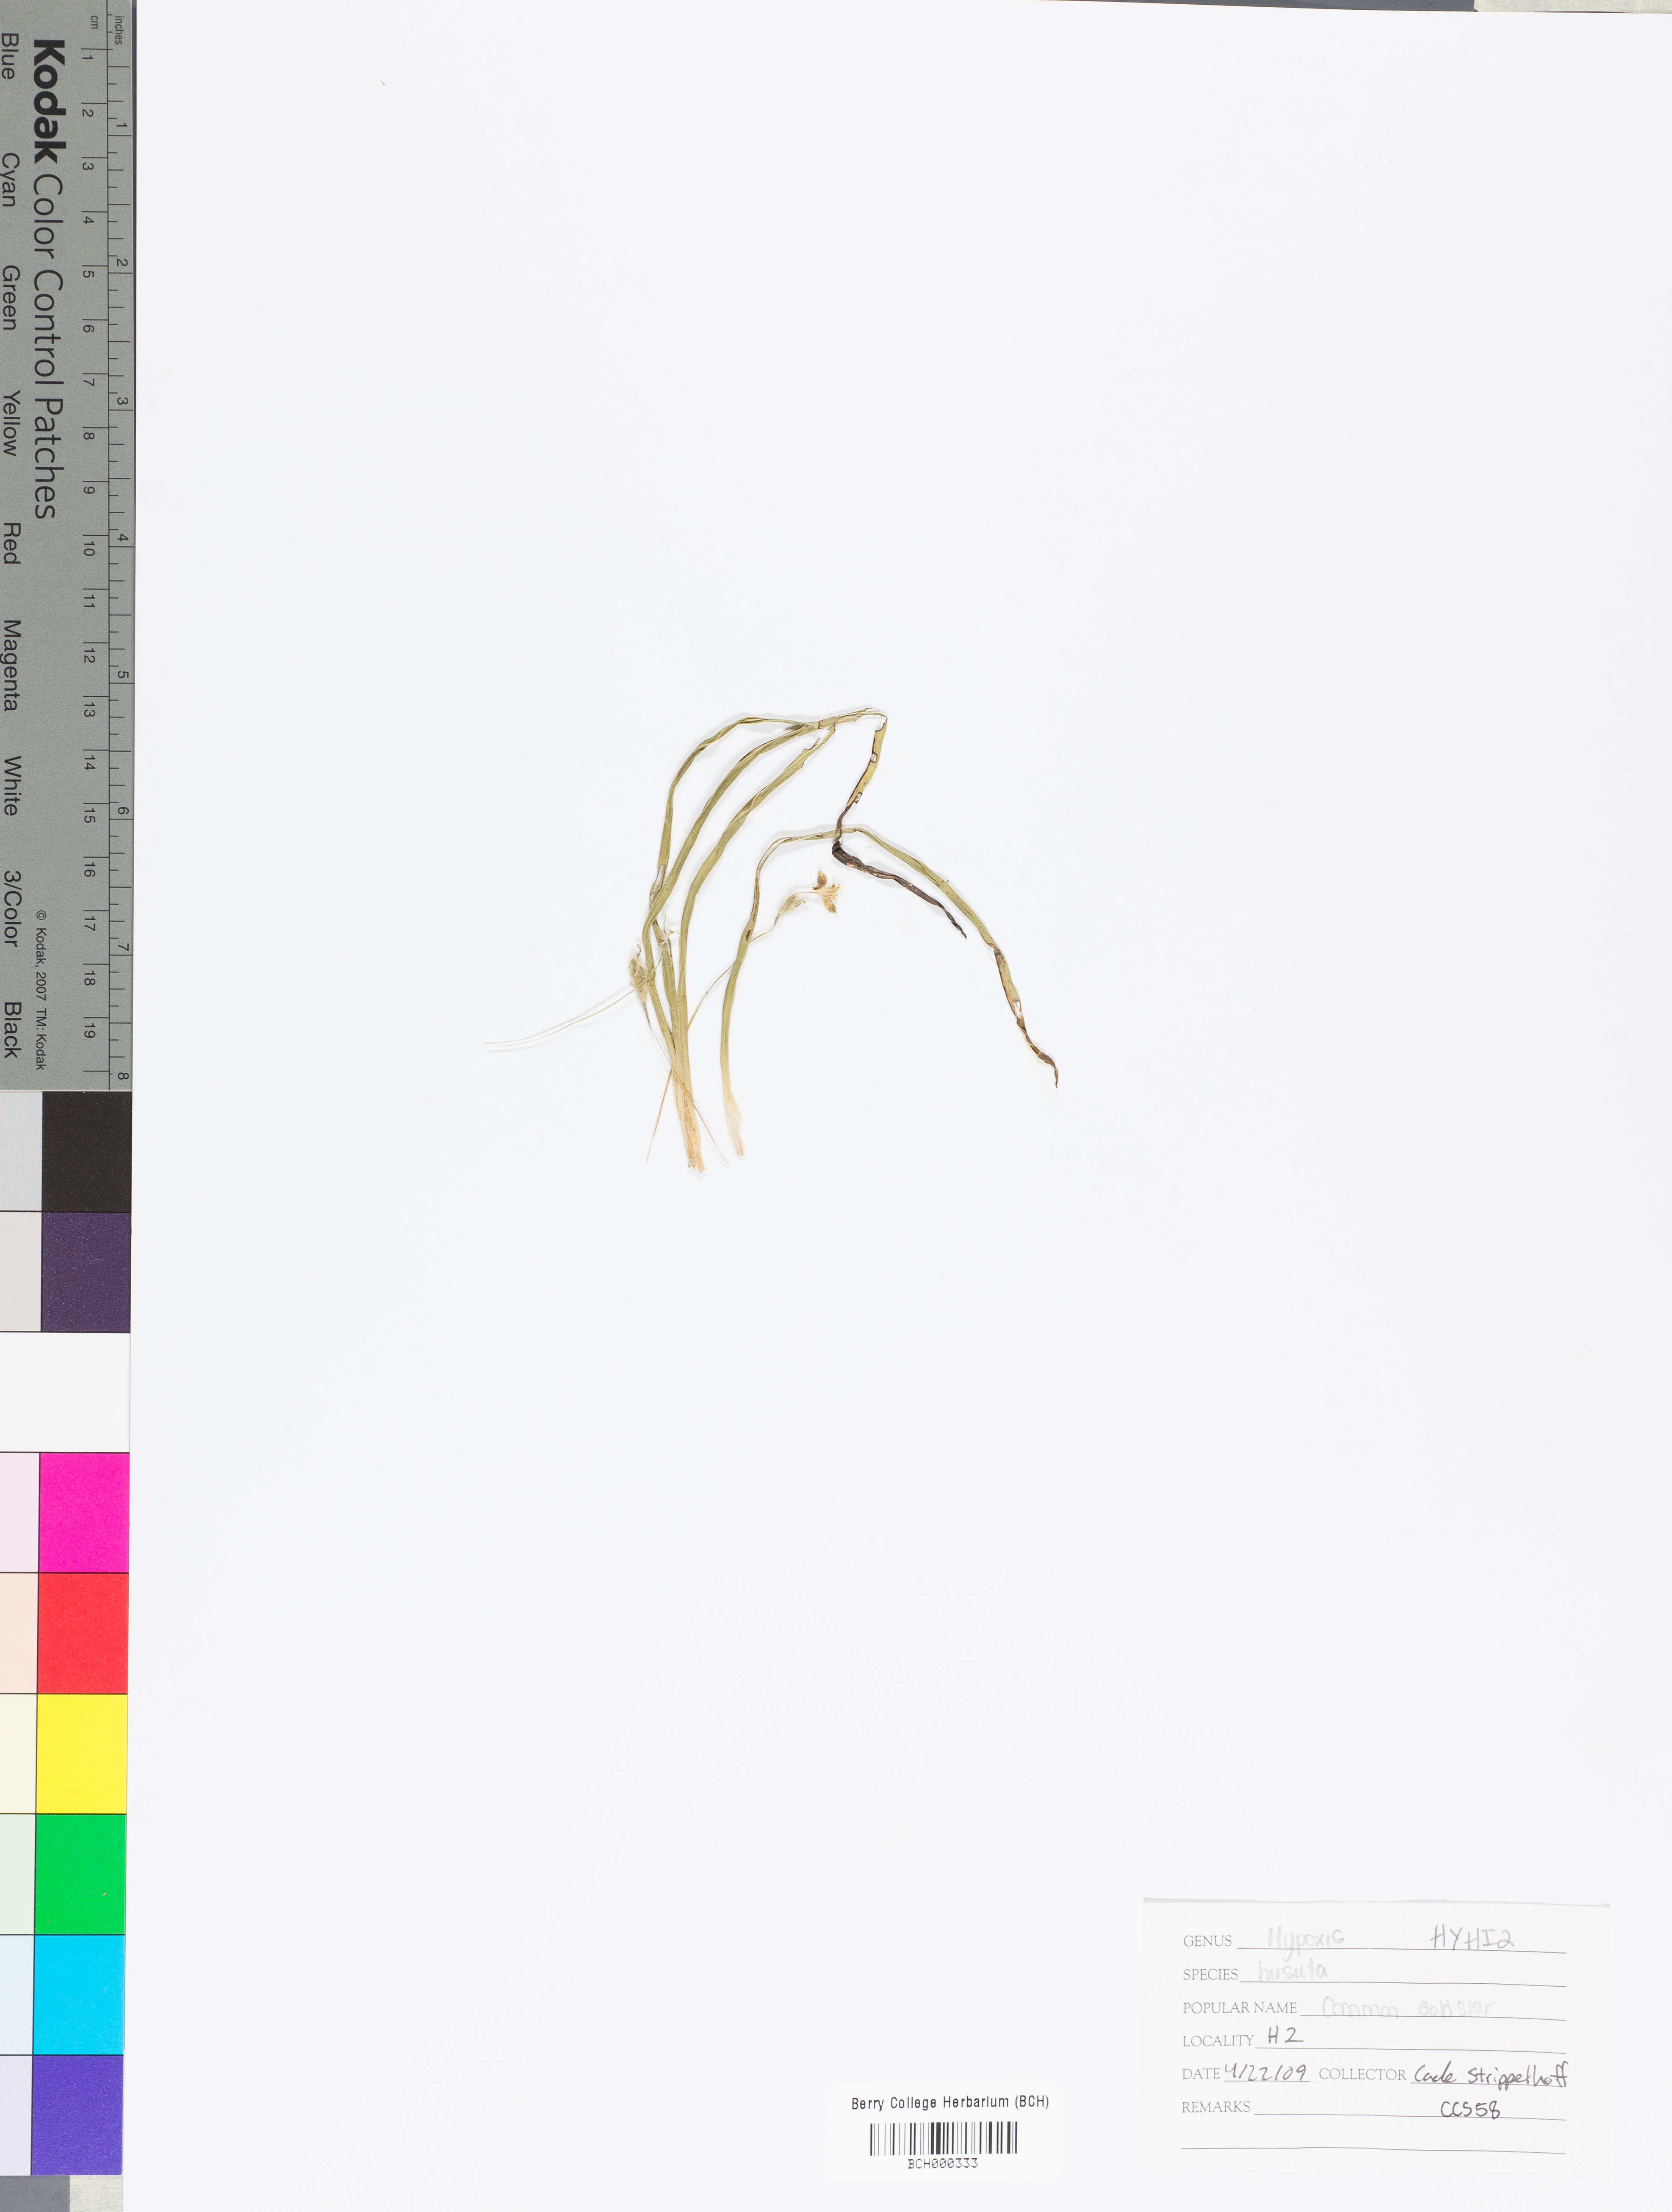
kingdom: Plantae
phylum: Tracheophyta
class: Liliopsida
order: Asparagales
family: Hypoxidaceae
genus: Hypoxis
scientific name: Hypoxis hirsuta
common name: Common goldstar
